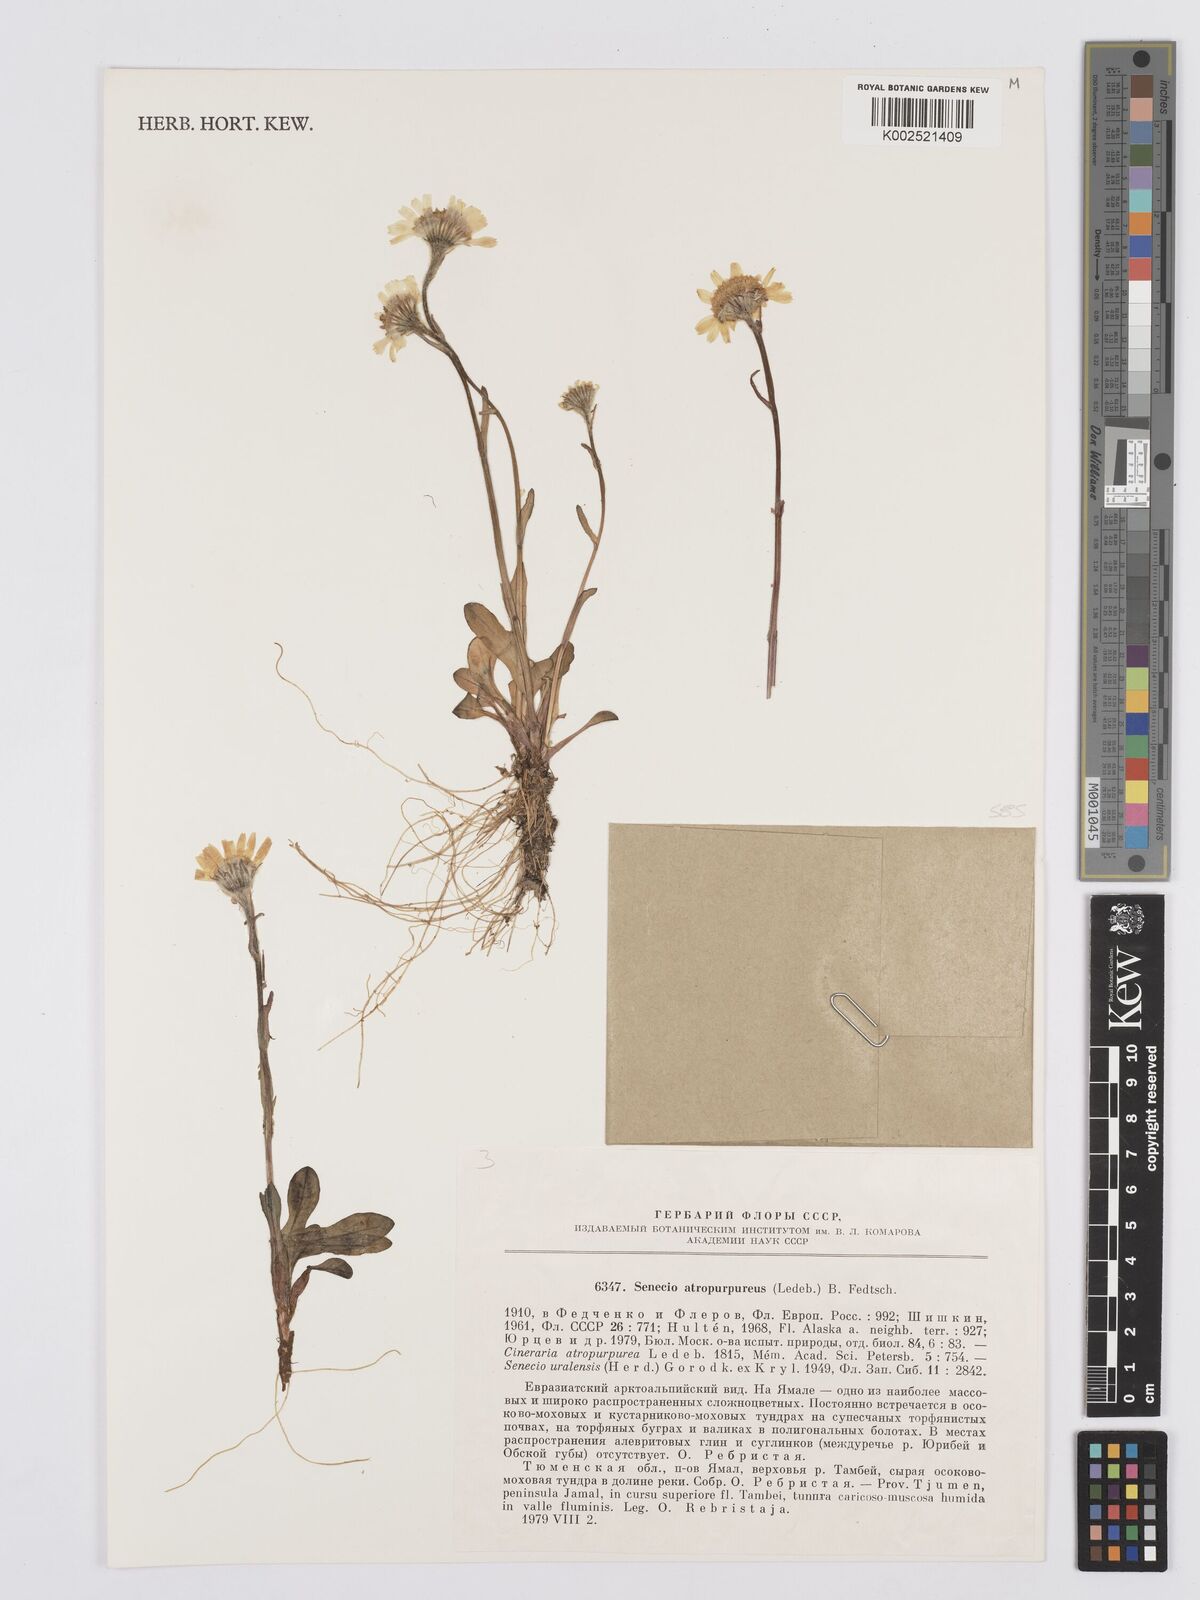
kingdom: Plantae
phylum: Tracheophyta
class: Magnoliopsida
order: Asterales
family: Asteraceae
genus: Tephroseris
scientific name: Tephroseris integrifolia
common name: Field fleawort
